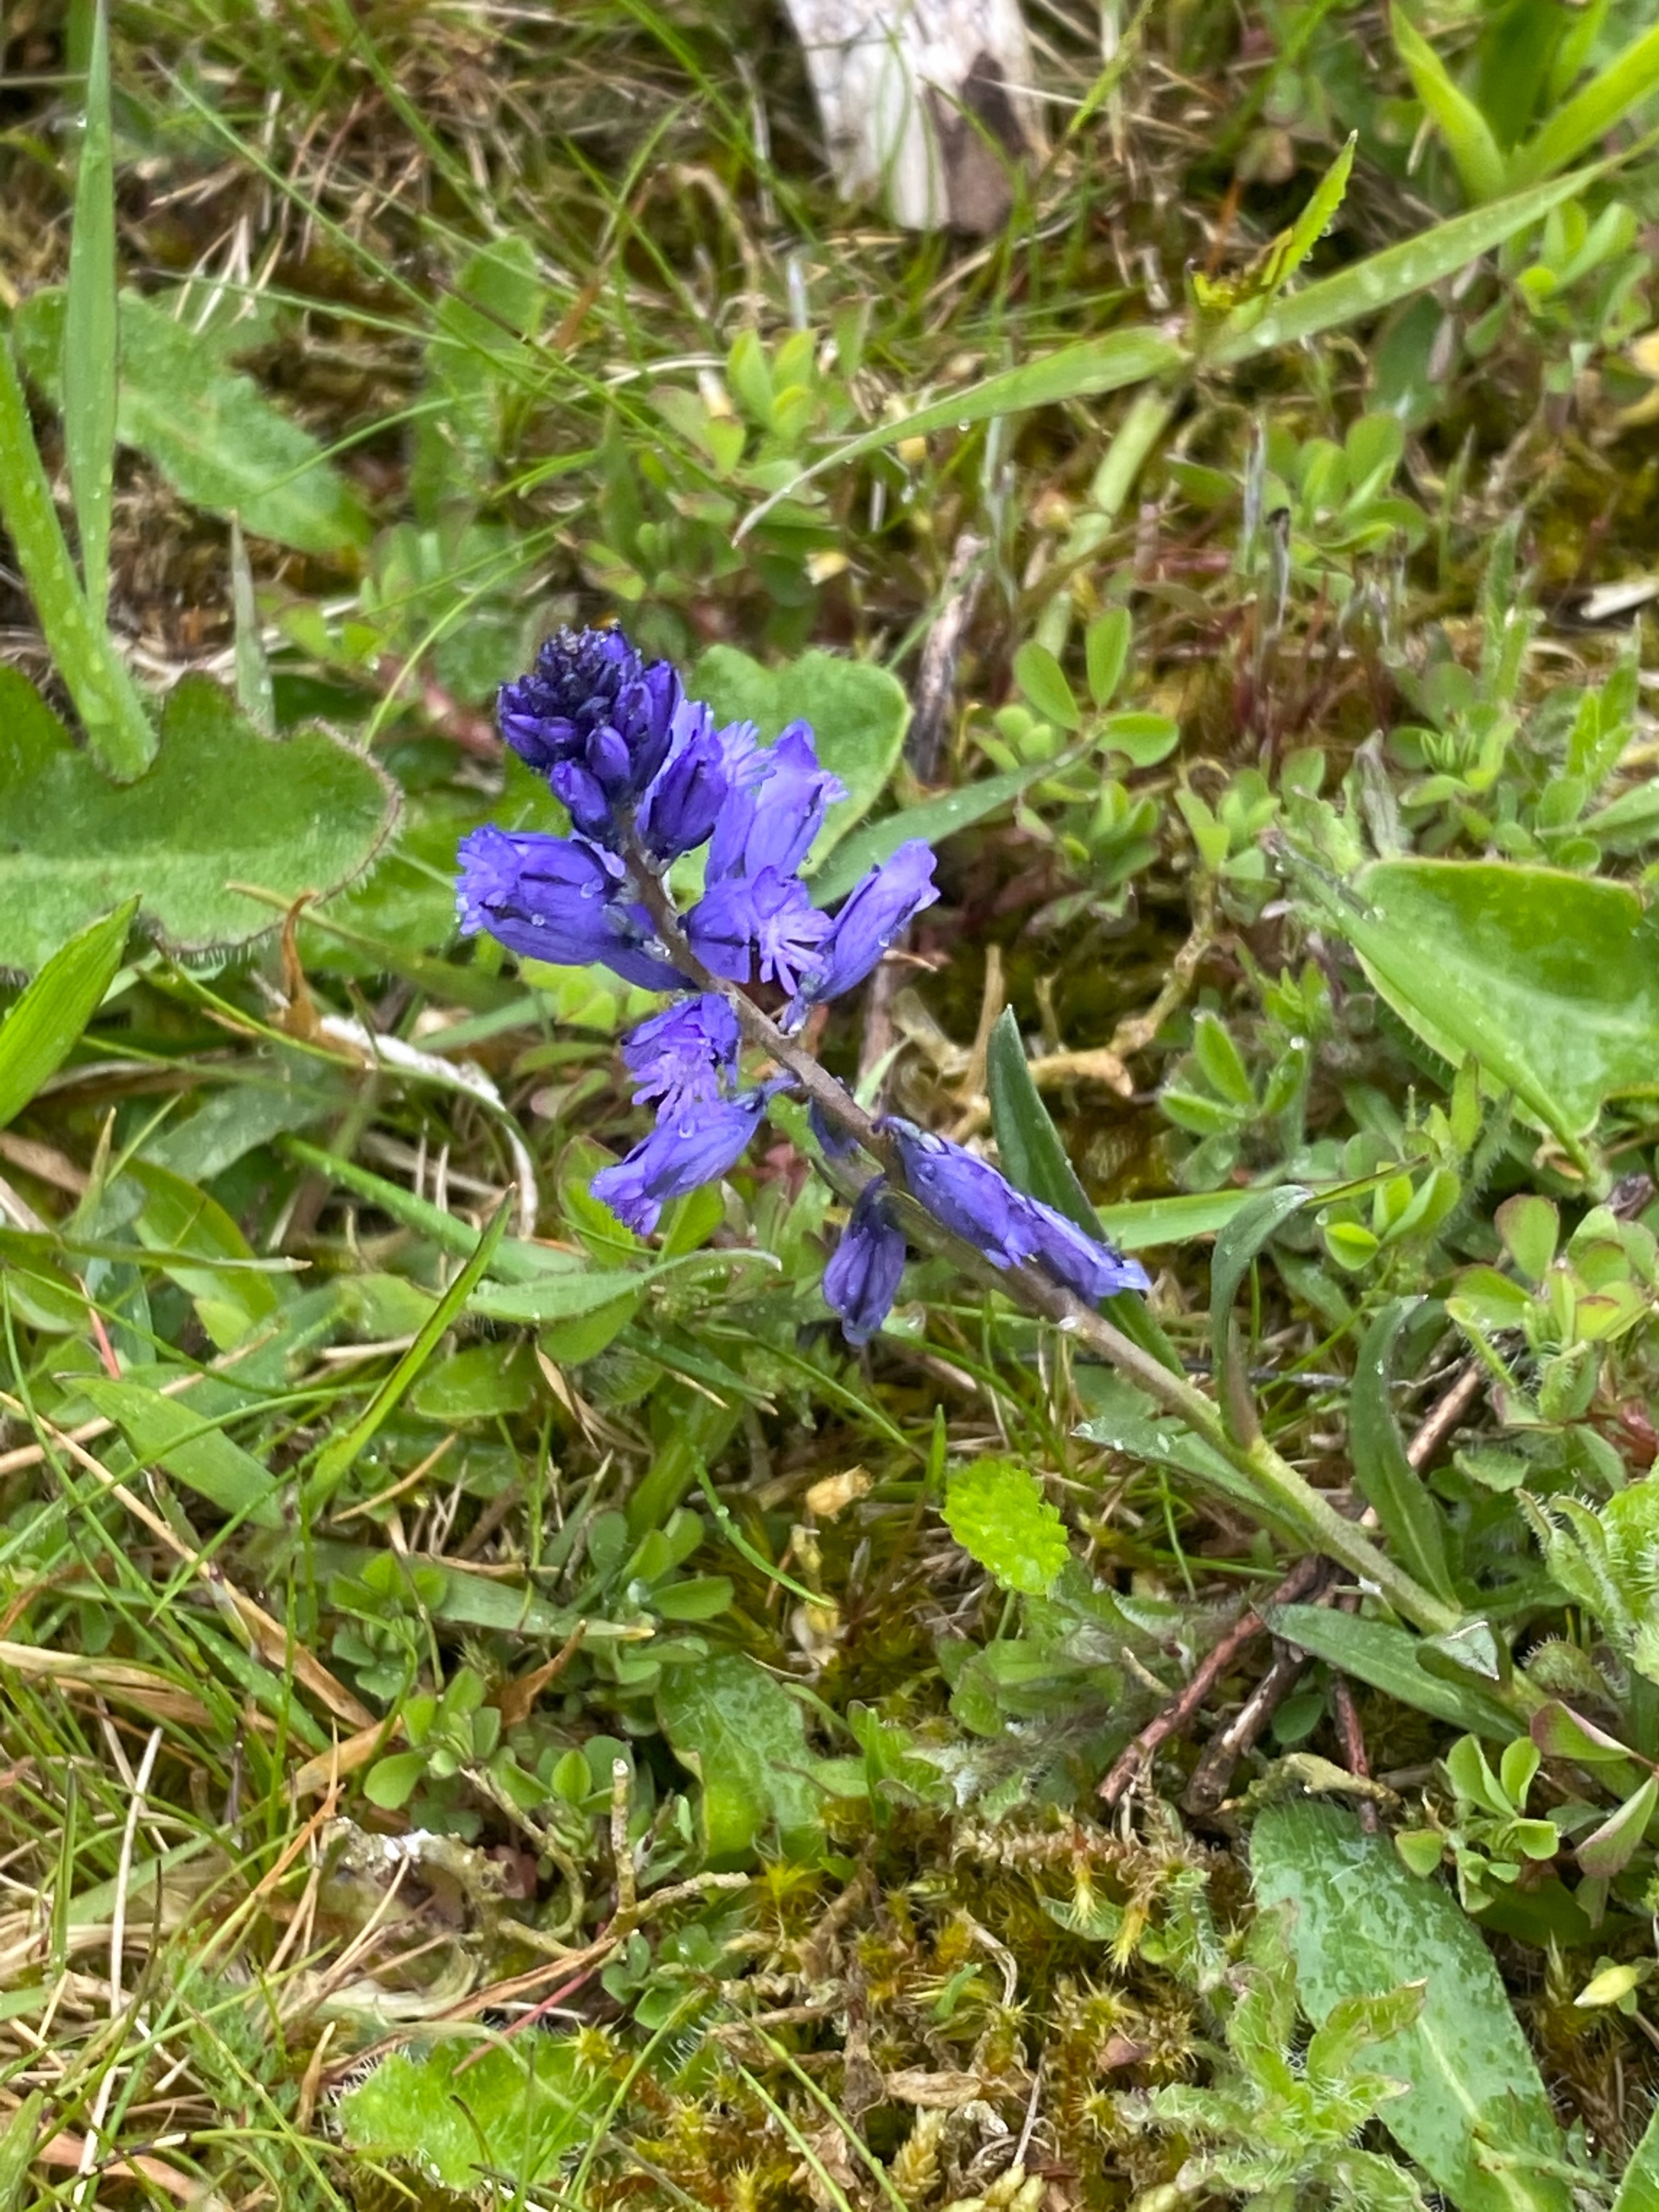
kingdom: Plantae
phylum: Tracheophyta
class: Magnoliopsida
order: Fabales
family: Polygalaceae
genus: Polygala
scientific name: Polygala vulgaris
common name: Almindelig mælkeurt
